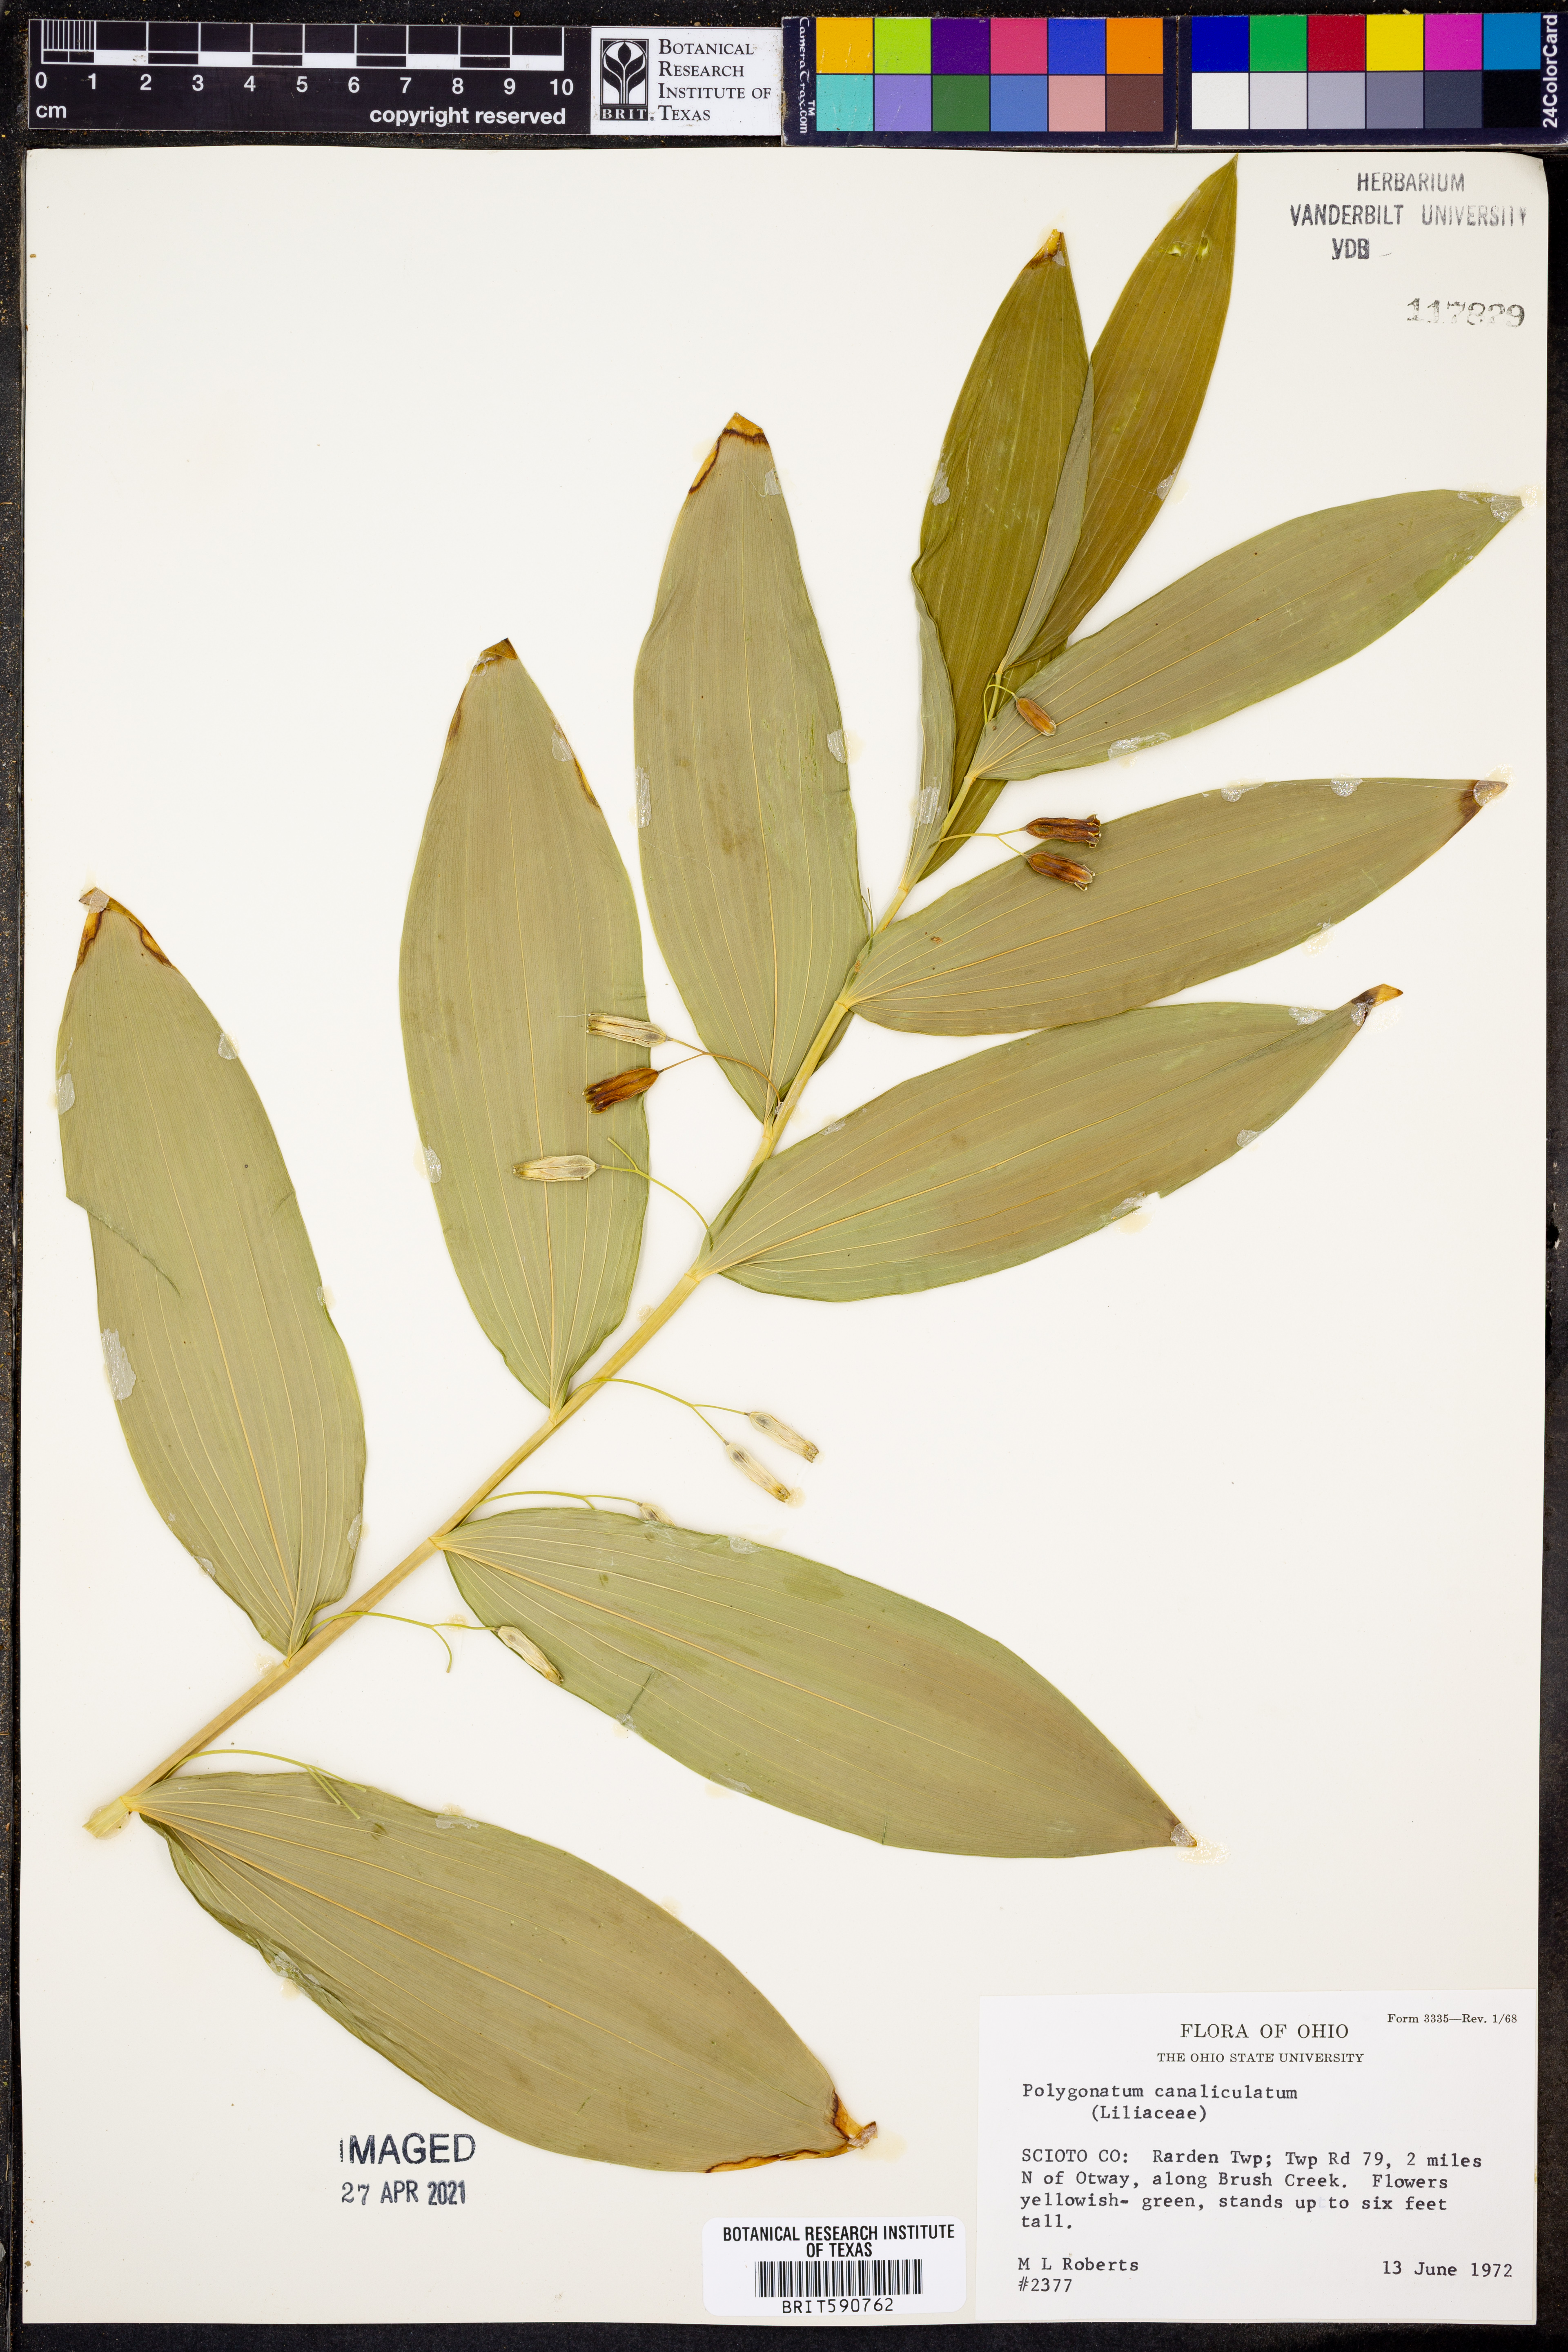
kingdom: Plantae
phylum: Tracheophyta
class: Liliopsida
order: Asparagales
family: Asparagaceae
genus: Polygonatum
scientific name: Polygonatum biflorum
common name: American solomon's-seal
